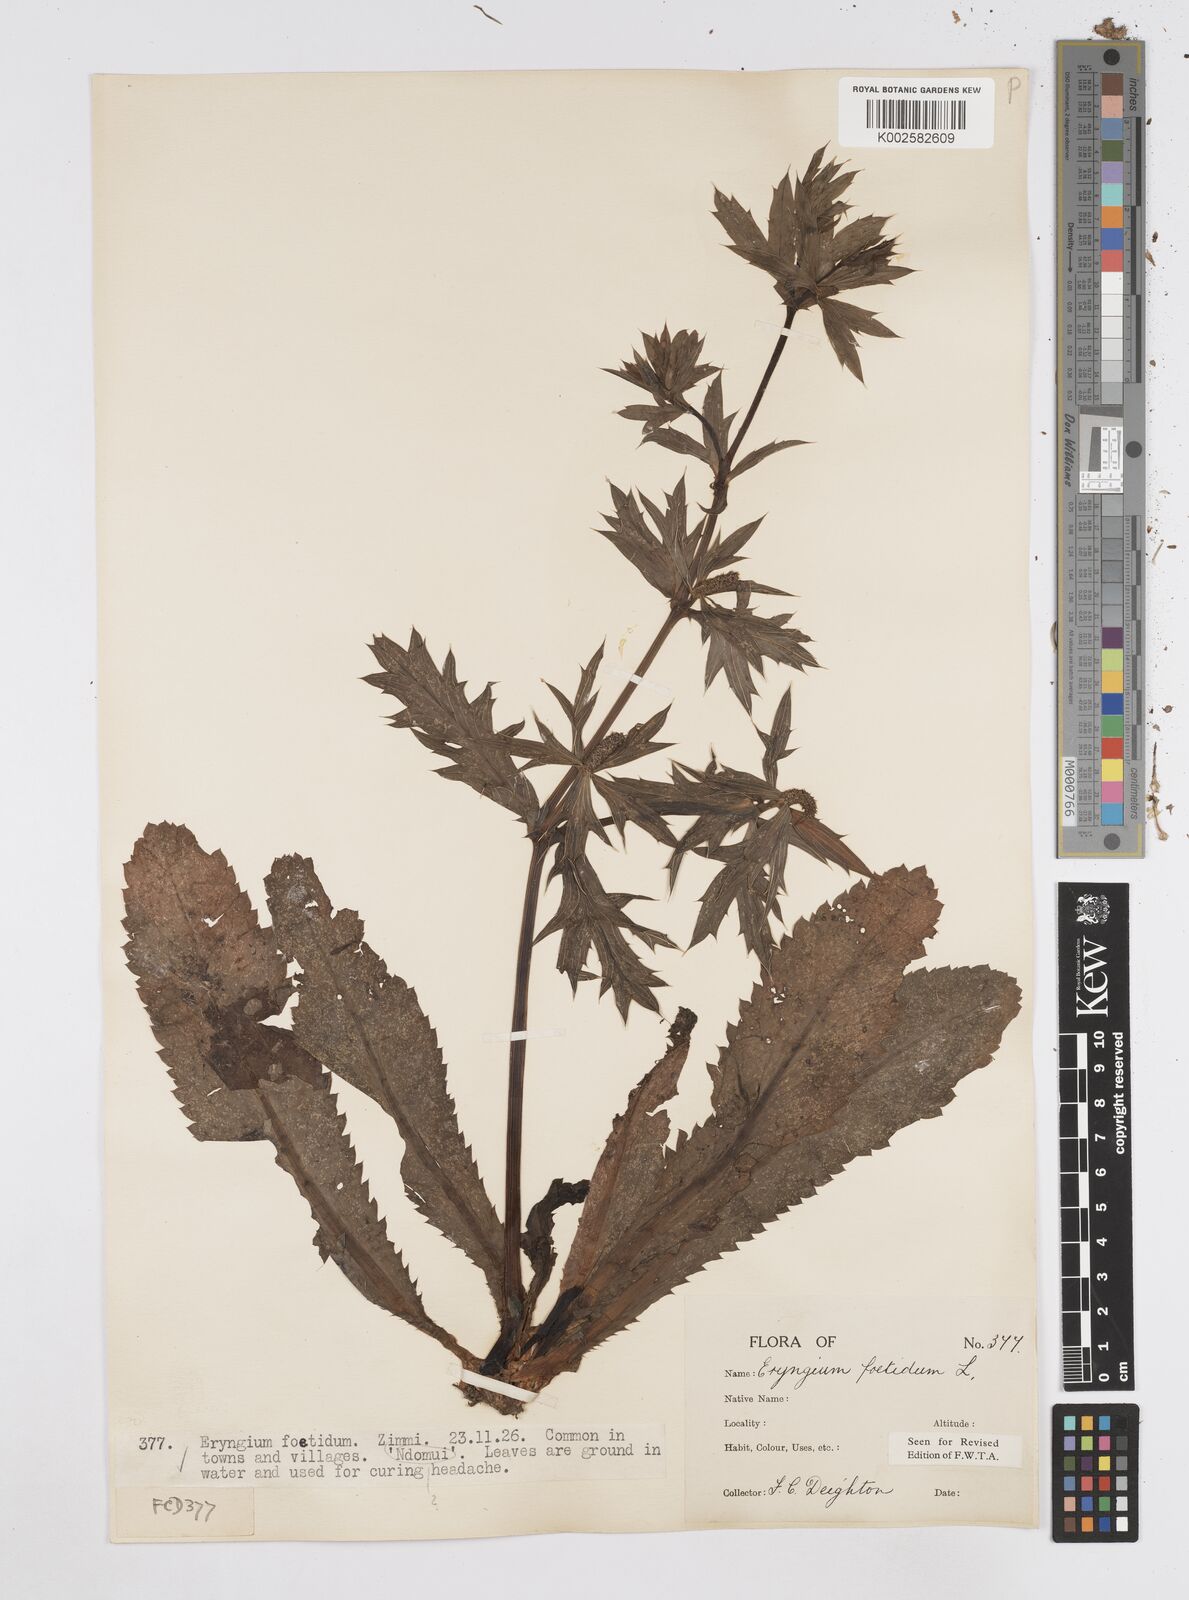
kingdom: Plantae
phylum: Tracheophyta
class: Magnoliopsida
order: Apiales
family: Apiaceae
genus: Eryngium
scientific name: Eryngium foetidum
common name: Fitweed
